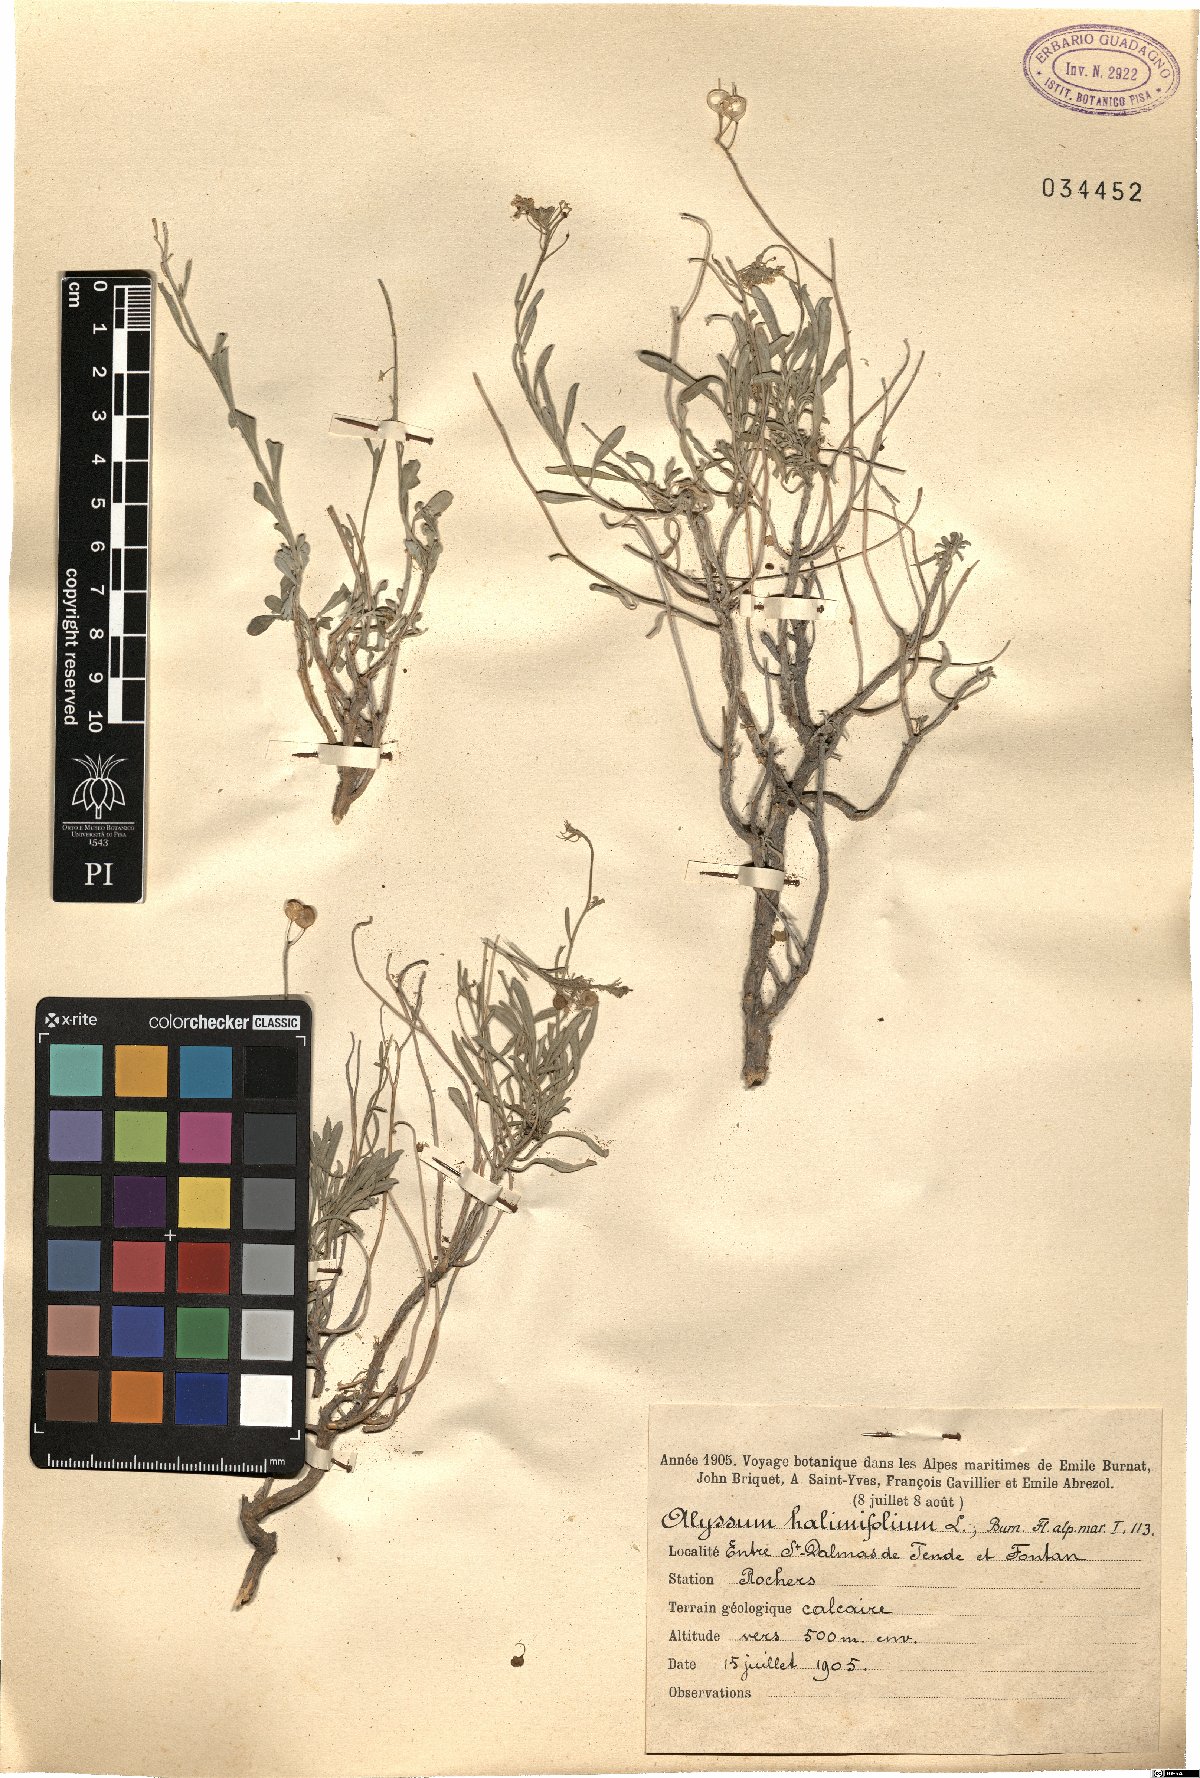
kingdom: Plantae
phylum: Tracheophyta
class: Magnoliopsida
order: Brassicales
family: Brassicaceae
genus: Hormathophylla
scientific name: Hormathophylla ligustica
